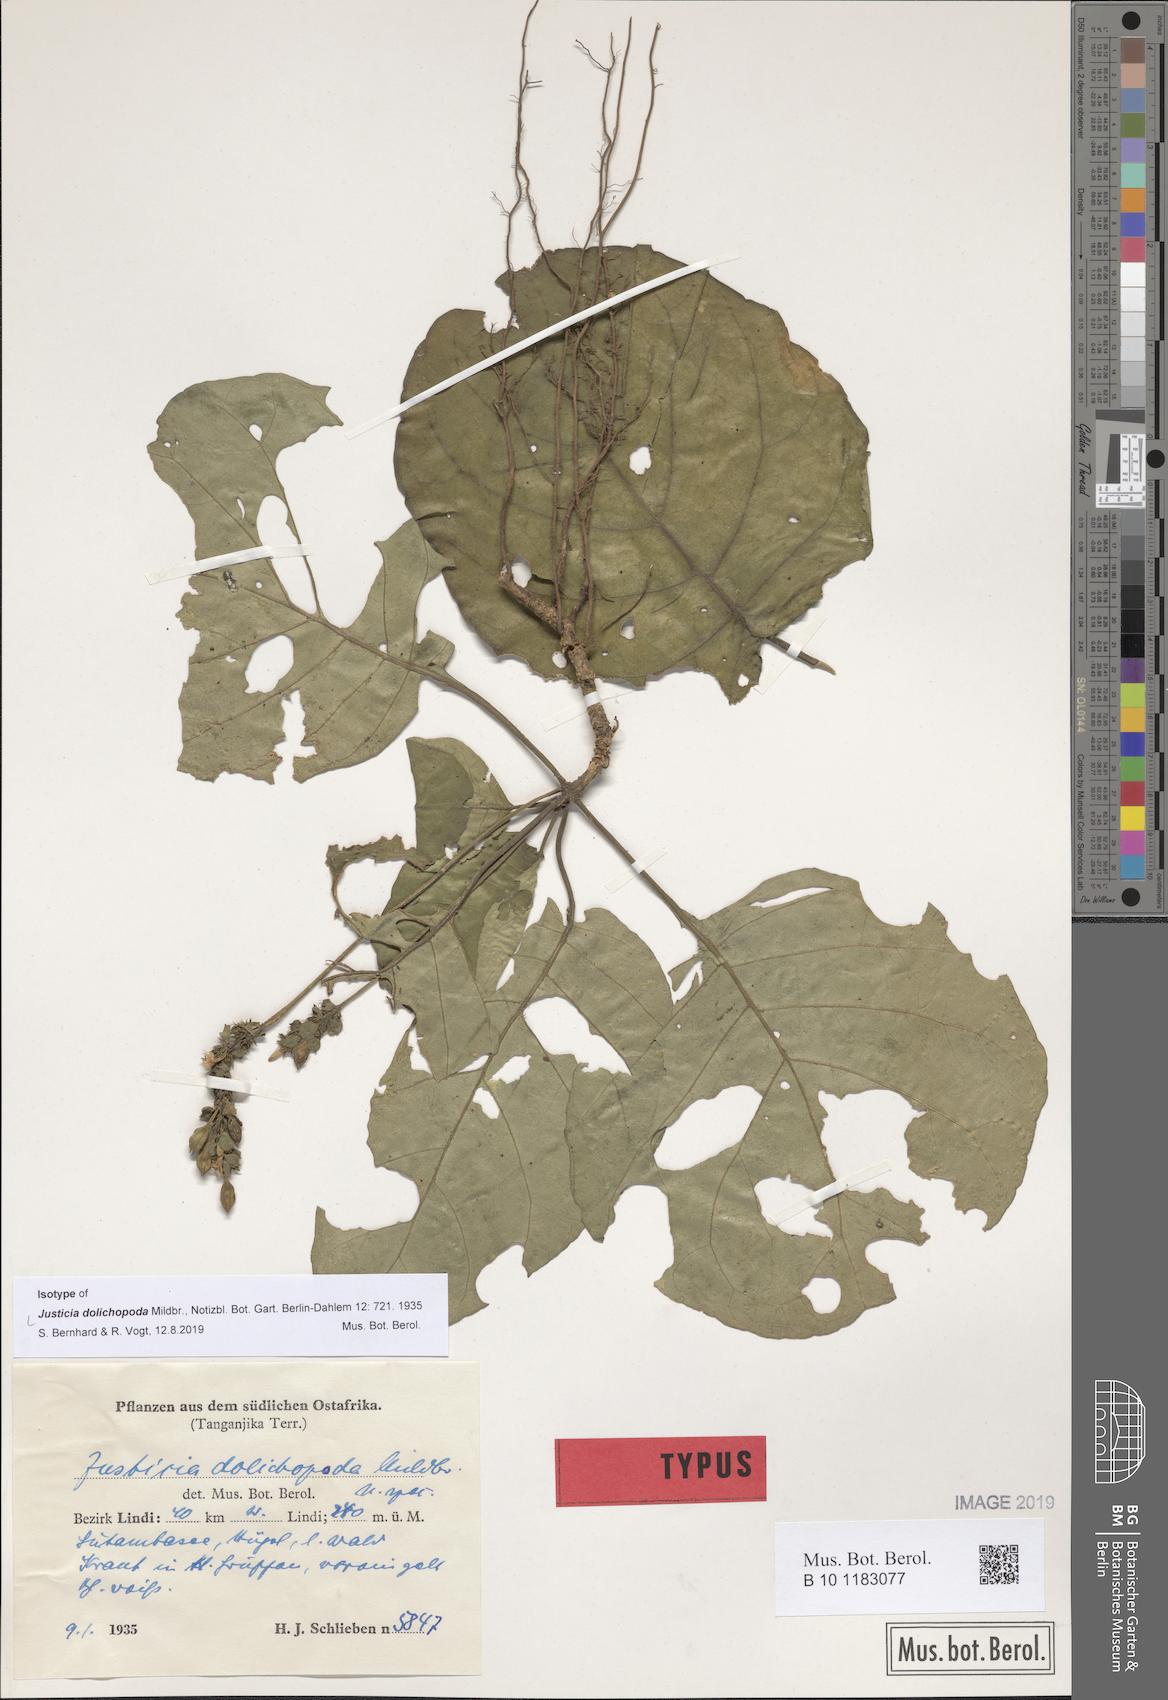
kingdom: Plantae
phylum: Tracheophyta
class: Magnoliopsida
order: Lamiales
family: Acanthaceae
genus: Nicoteba
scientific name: Nicoteba fittonioides
